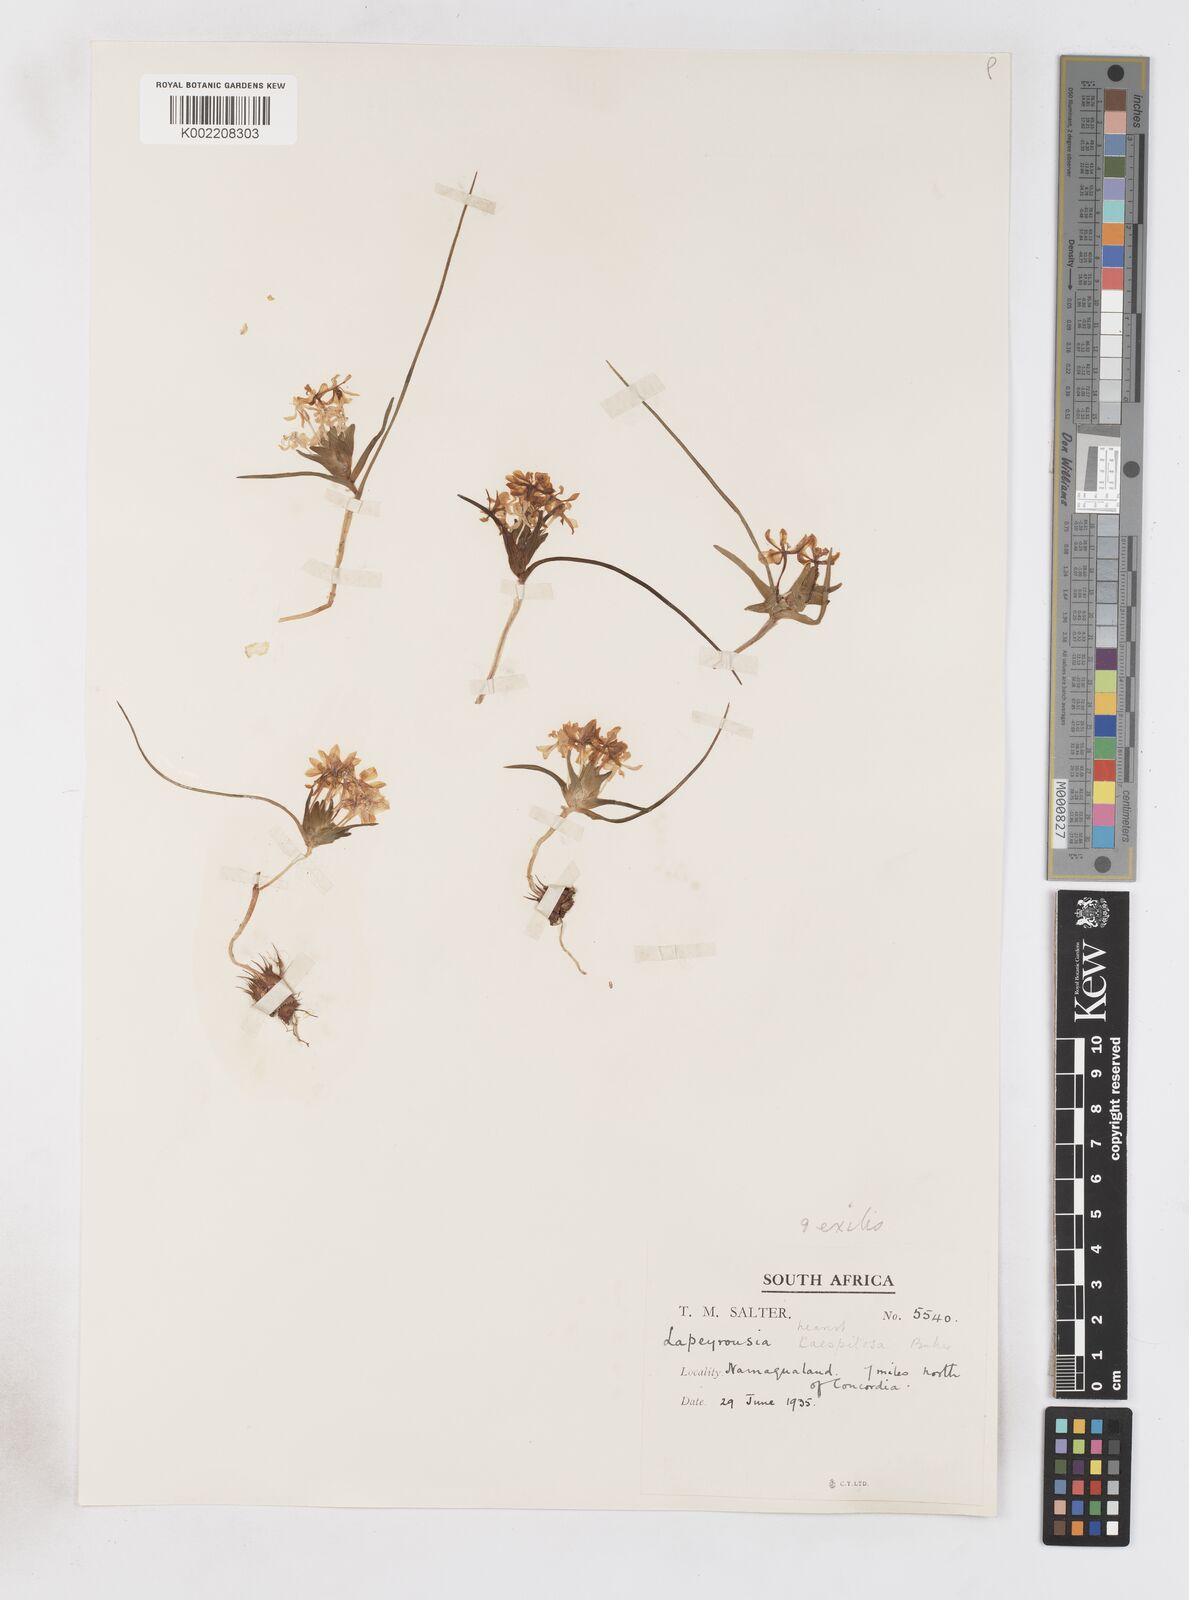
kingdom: Plantae
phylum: Tracheophyta
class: Liliopsida
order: Asparagales
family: Iridaceae
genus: Lapeirousia
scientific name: Lapeirousia exilis
